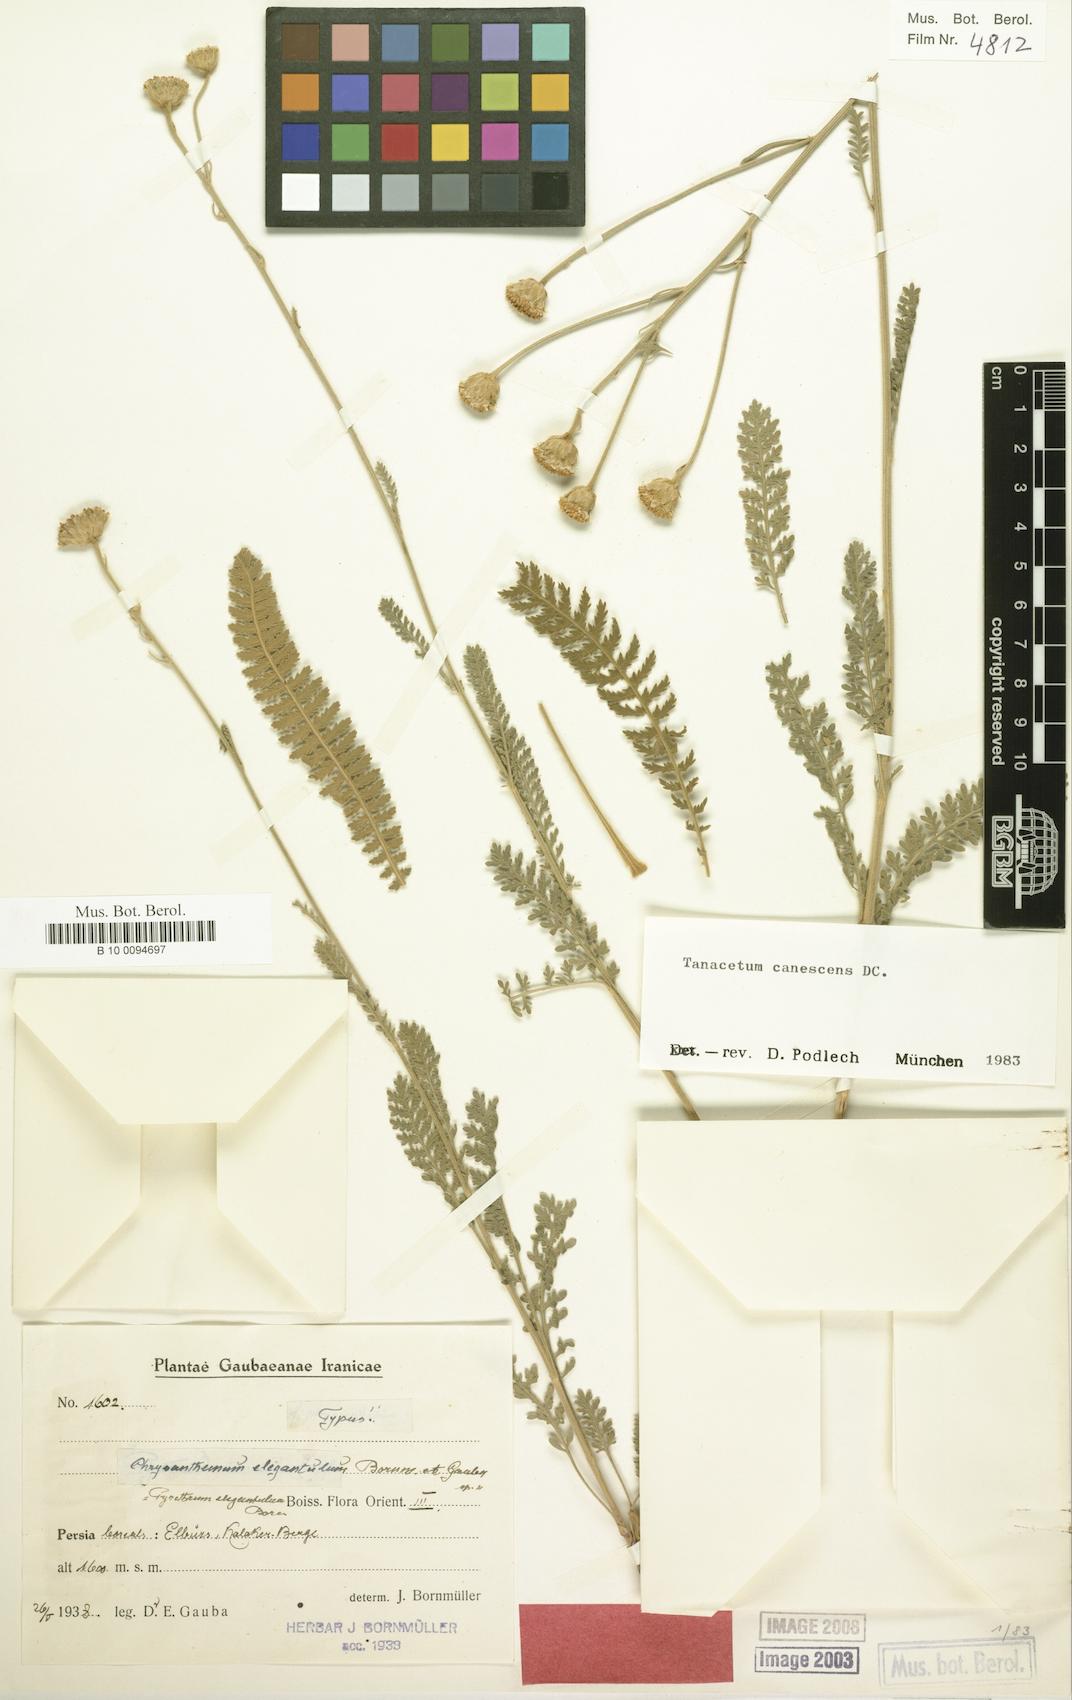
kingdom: Plantae
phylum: Tracheophyta
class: Magnoliopsida
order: Asterales
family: Asteraceae
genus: Tanacetum
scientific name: Tanacetum canescens
